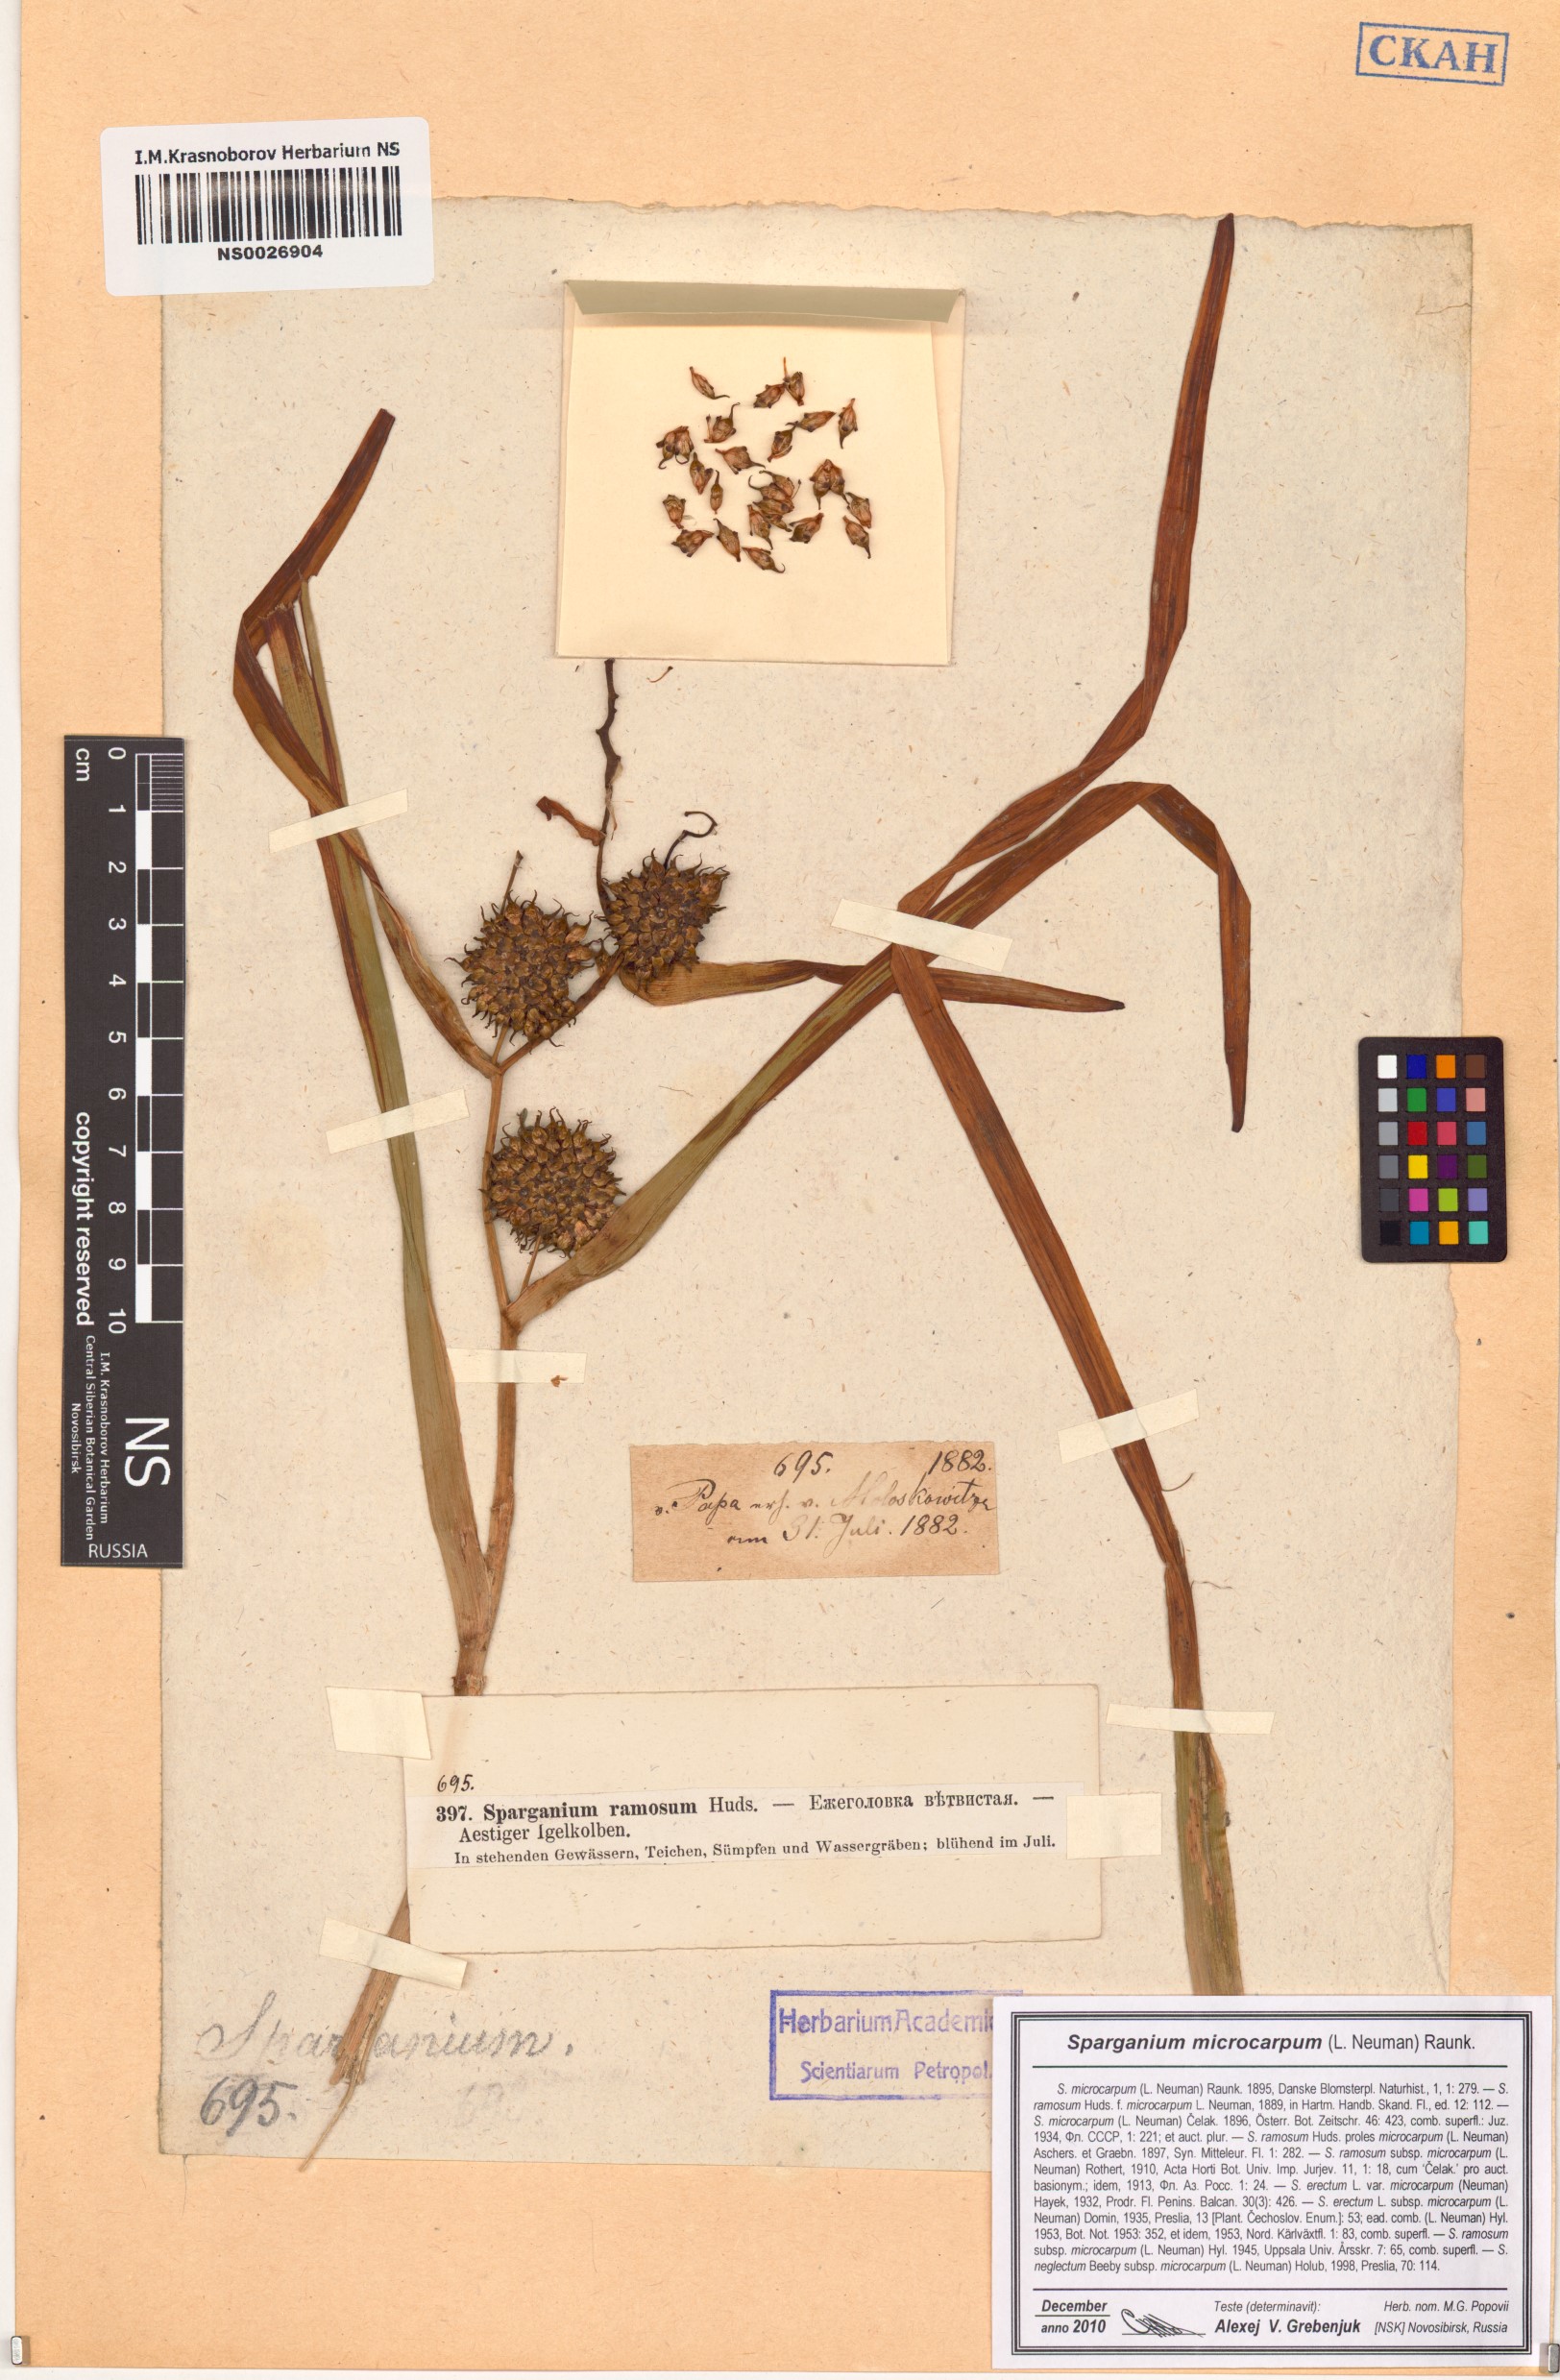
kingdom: Plantae
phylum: Tracheophyta
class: Liliopsida
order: Poales
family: Typhaceae
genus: Sparganium
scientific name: Sparganium erectum
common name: Branched bur-reed
